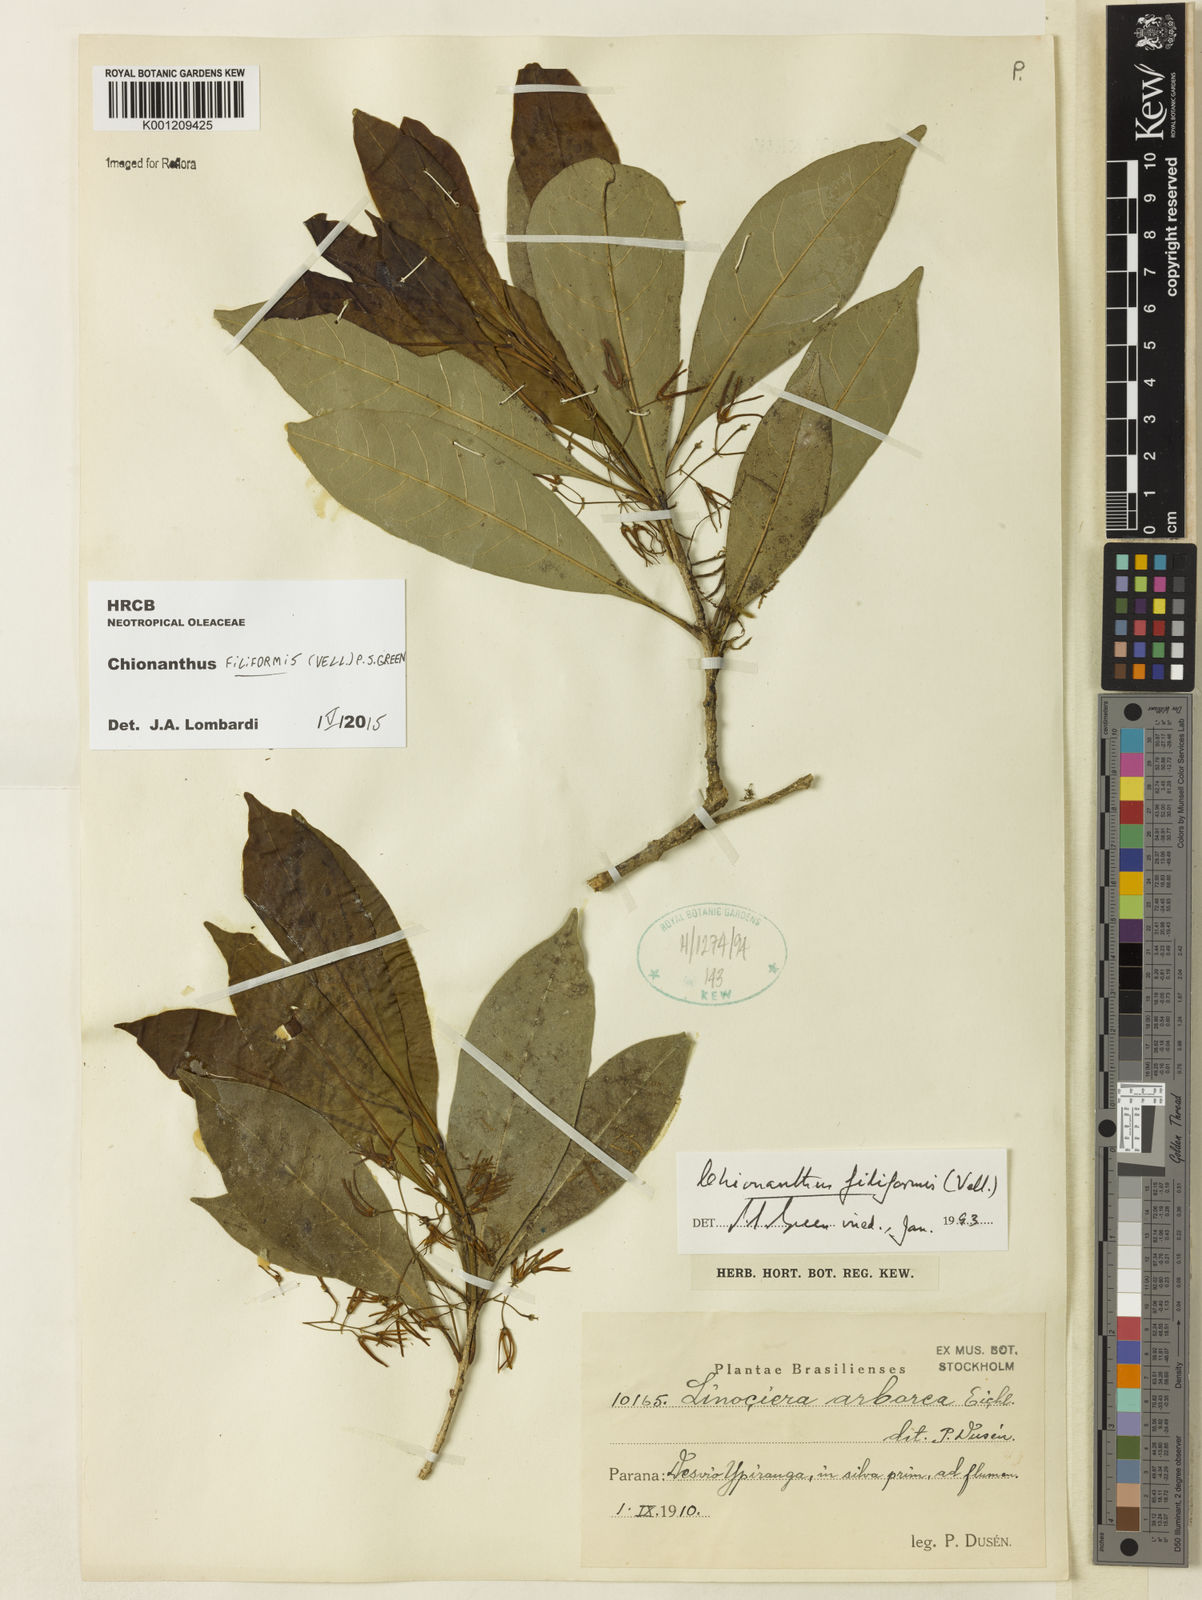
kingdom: Plantae
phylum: Tracheophyta
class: Magnoliopsida
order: Lamiales
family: Oleaceae
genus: Chionanthus
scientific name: Chionanthus filiformis
